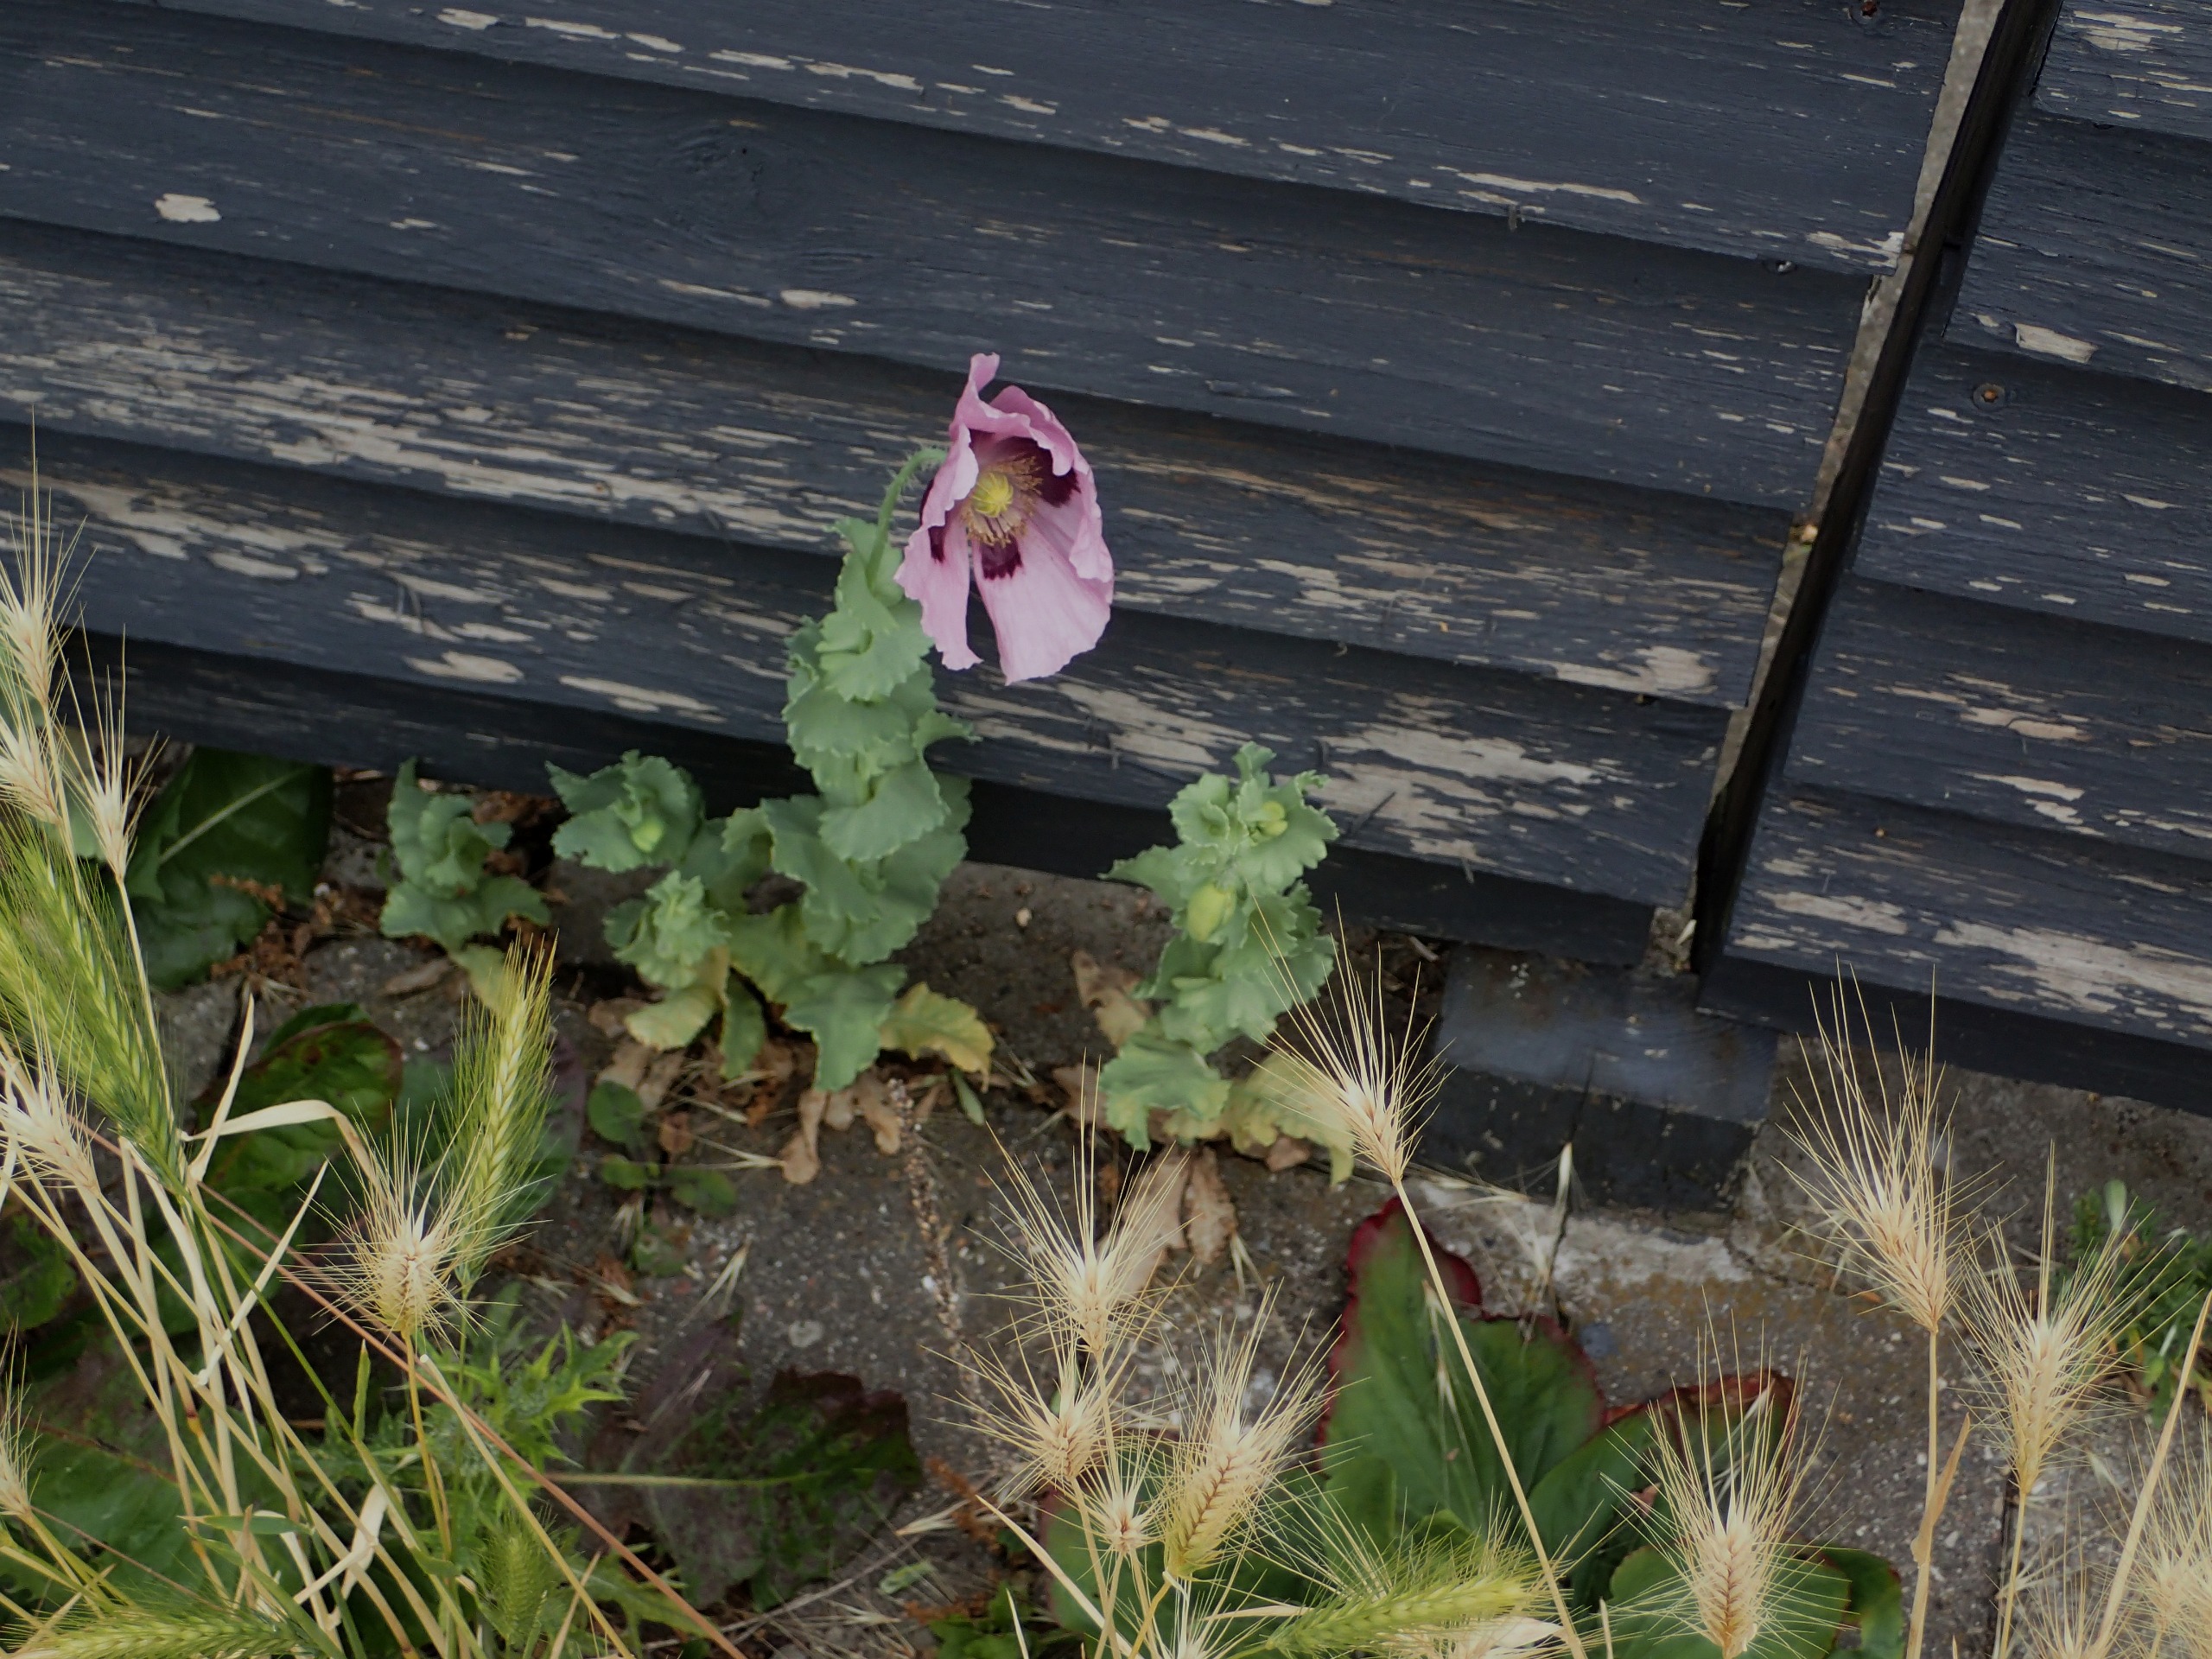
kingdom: Plantae
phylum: Tracheophyta
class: Magnoliopsida
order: Ranunculales
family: Papaveraceae
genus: Papaver
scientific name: Papaver somniferum
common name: Opium-valmue
